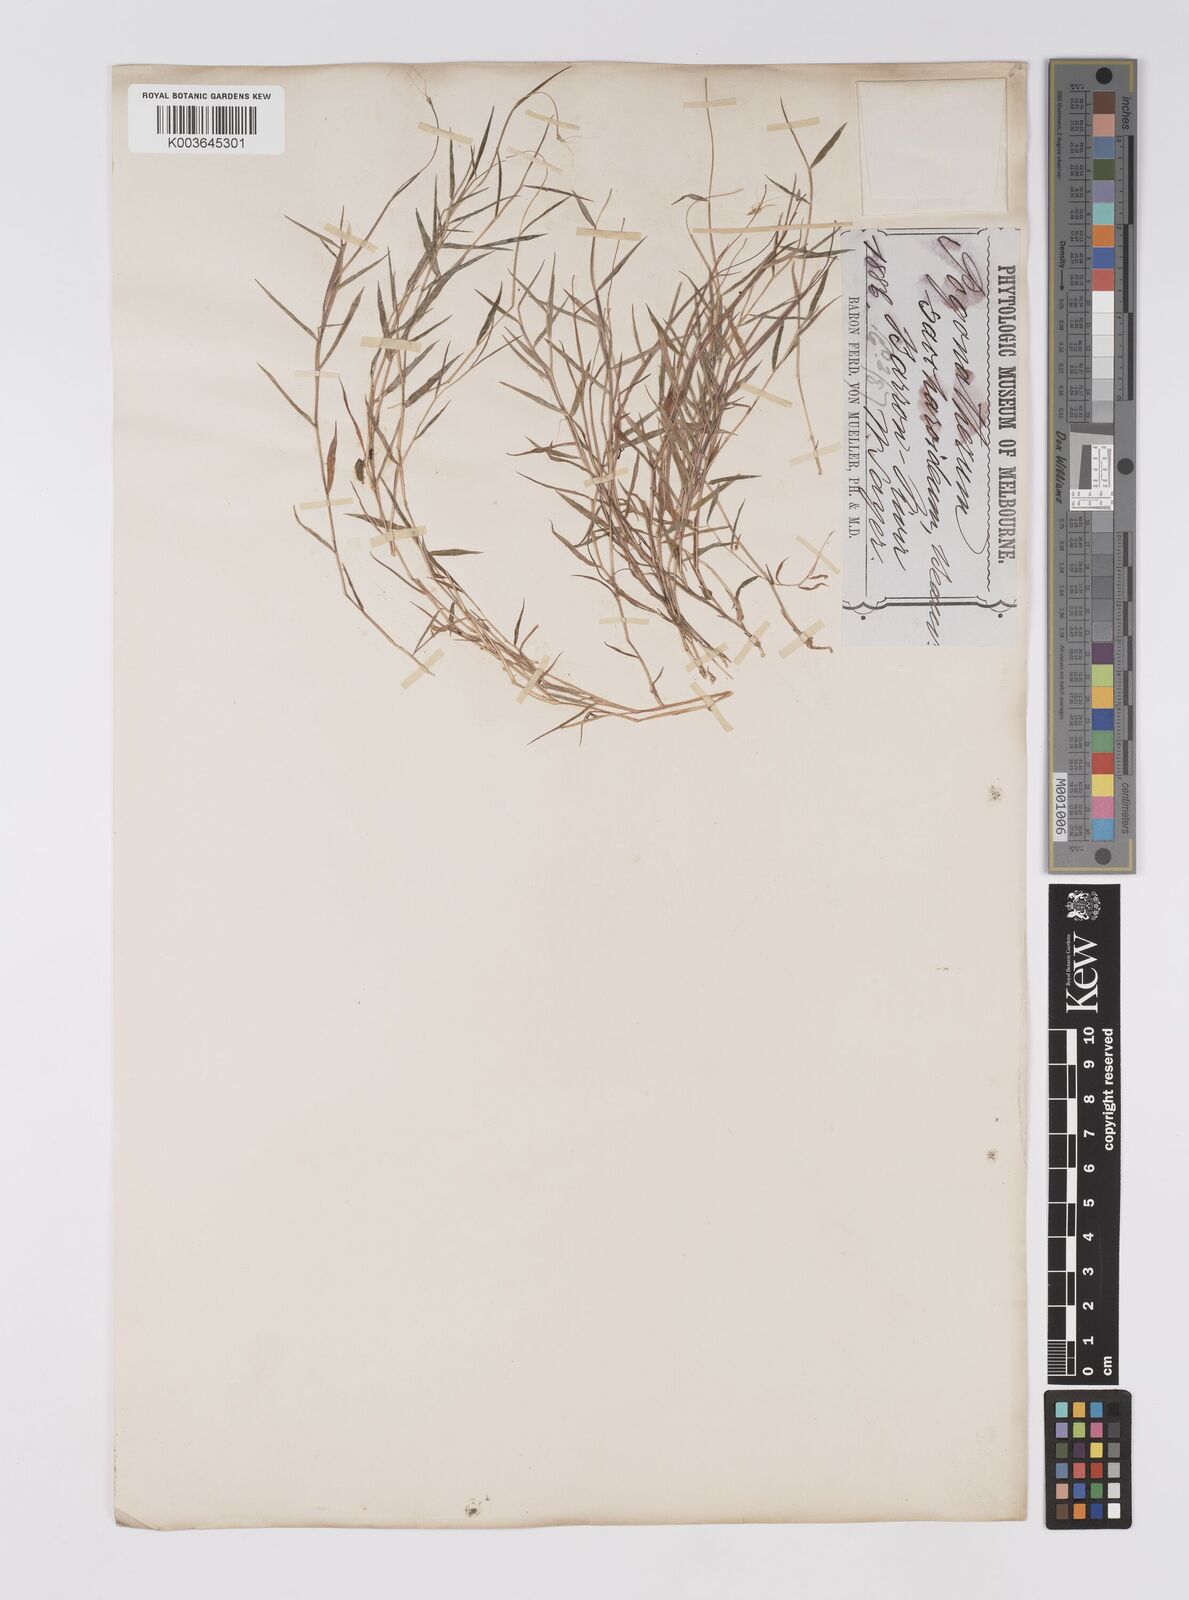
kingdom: Plantae
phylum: Tracheophyta
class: Liliopsida
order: Poales
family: Poaceae
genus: Pogonatherum
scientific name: Pogonatherum paniceum
